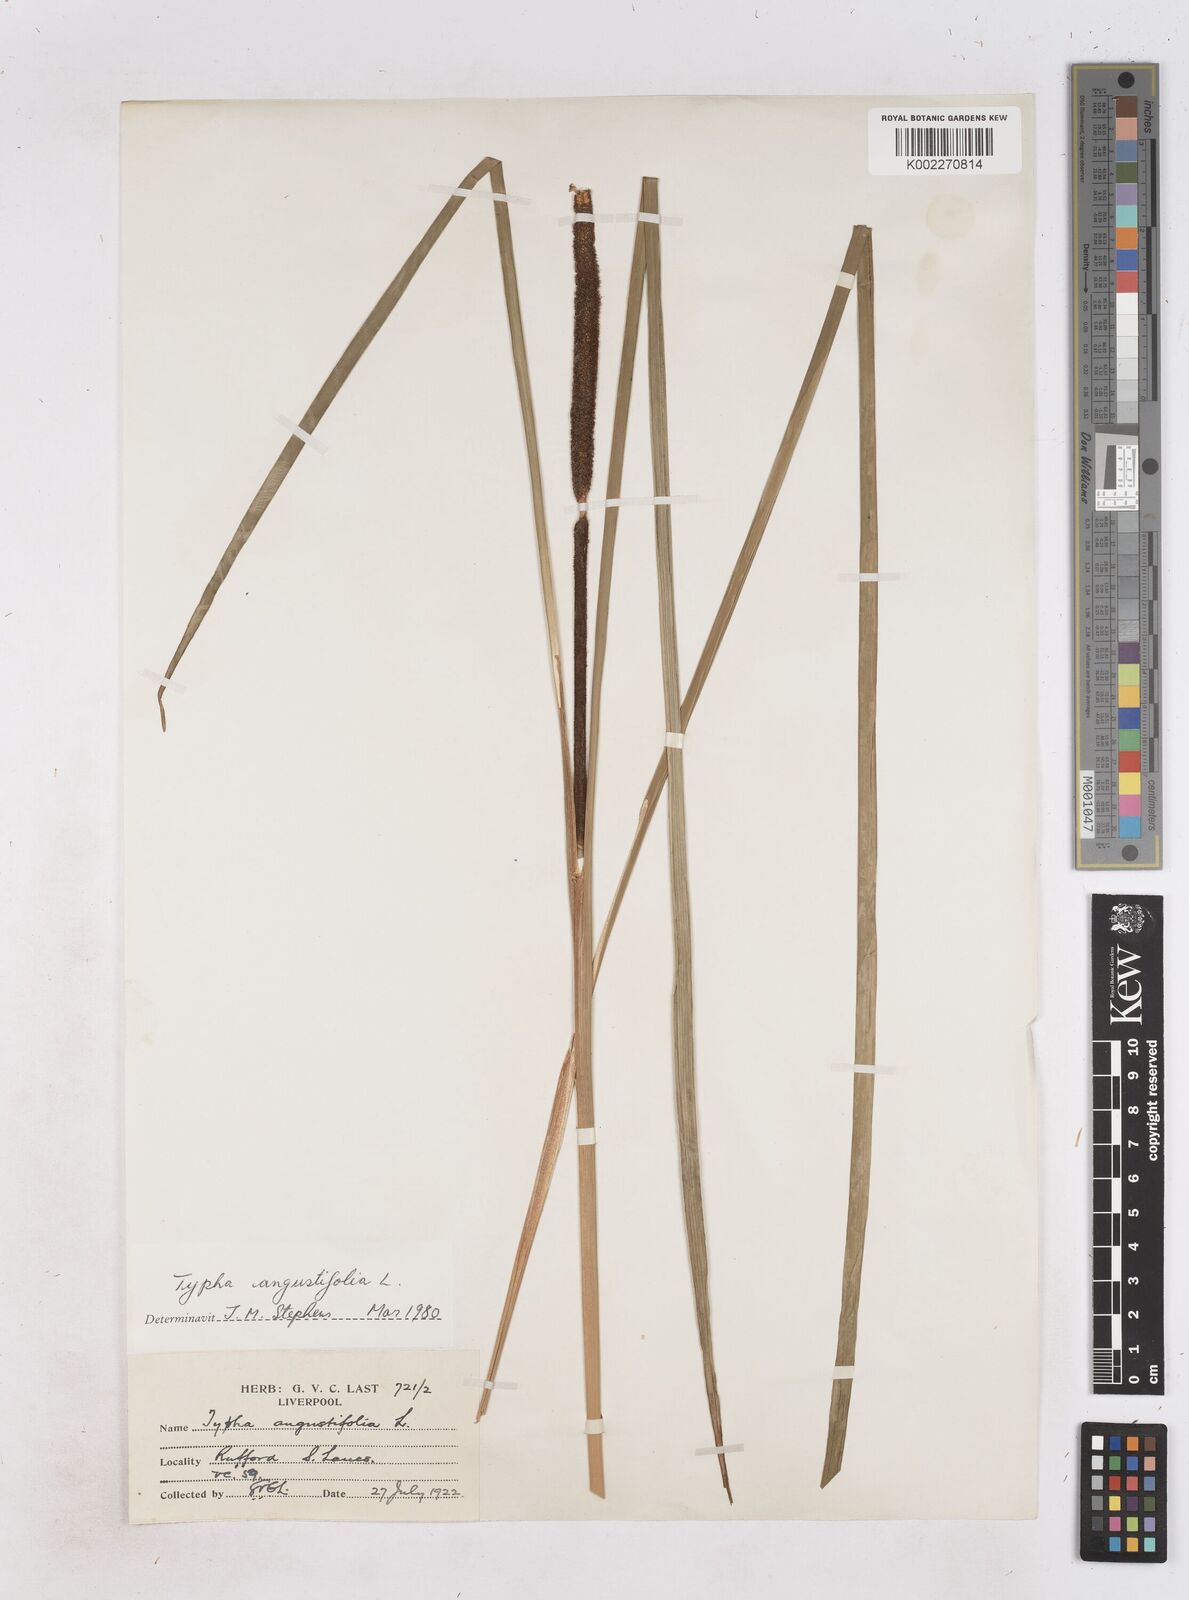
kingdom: Plantae
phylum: Tracheophyta
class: Liliopsida
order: Poales
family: Typhaceae
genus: Typha
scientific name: Typha angustifolia
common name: Lesser bulrush
